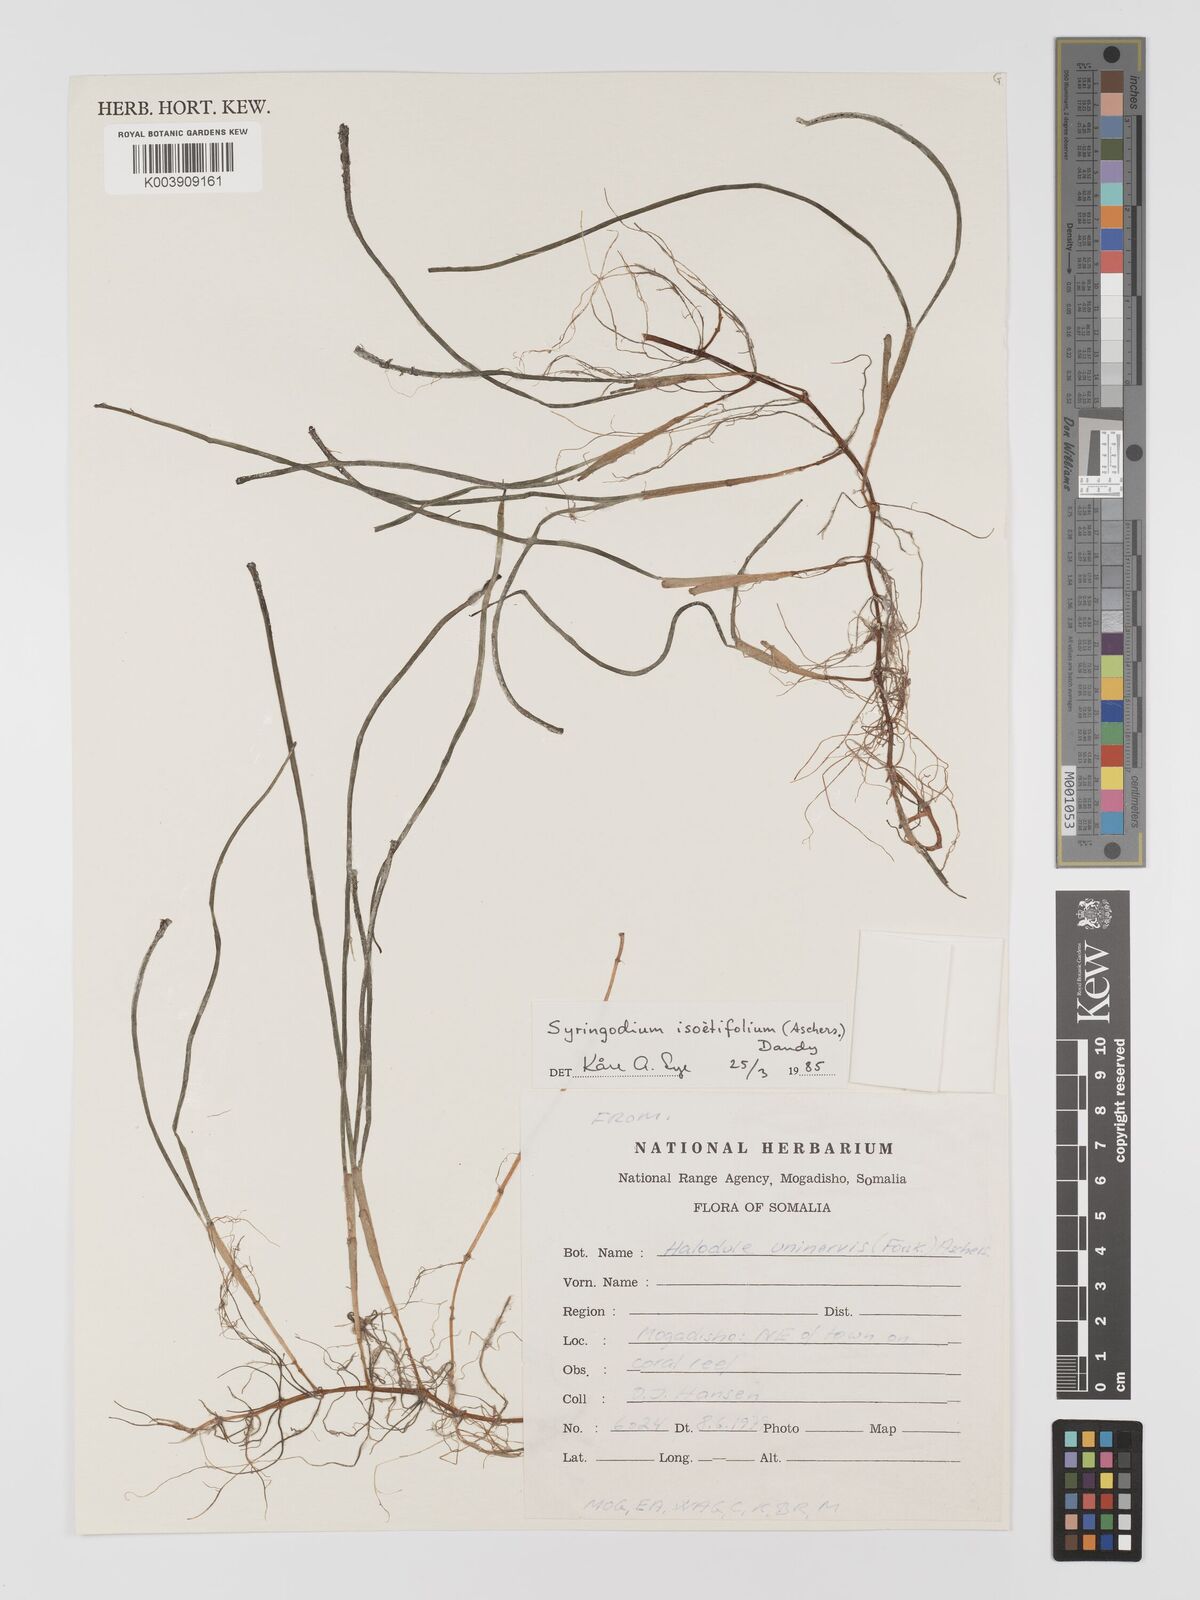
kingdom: Plantae
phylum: Tracheophyta
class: Liliopsida
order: Alismatales
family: Cymodoceaceae
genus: Halodule
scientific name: Halodule uninervis
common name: Narrowleaf seagrass
